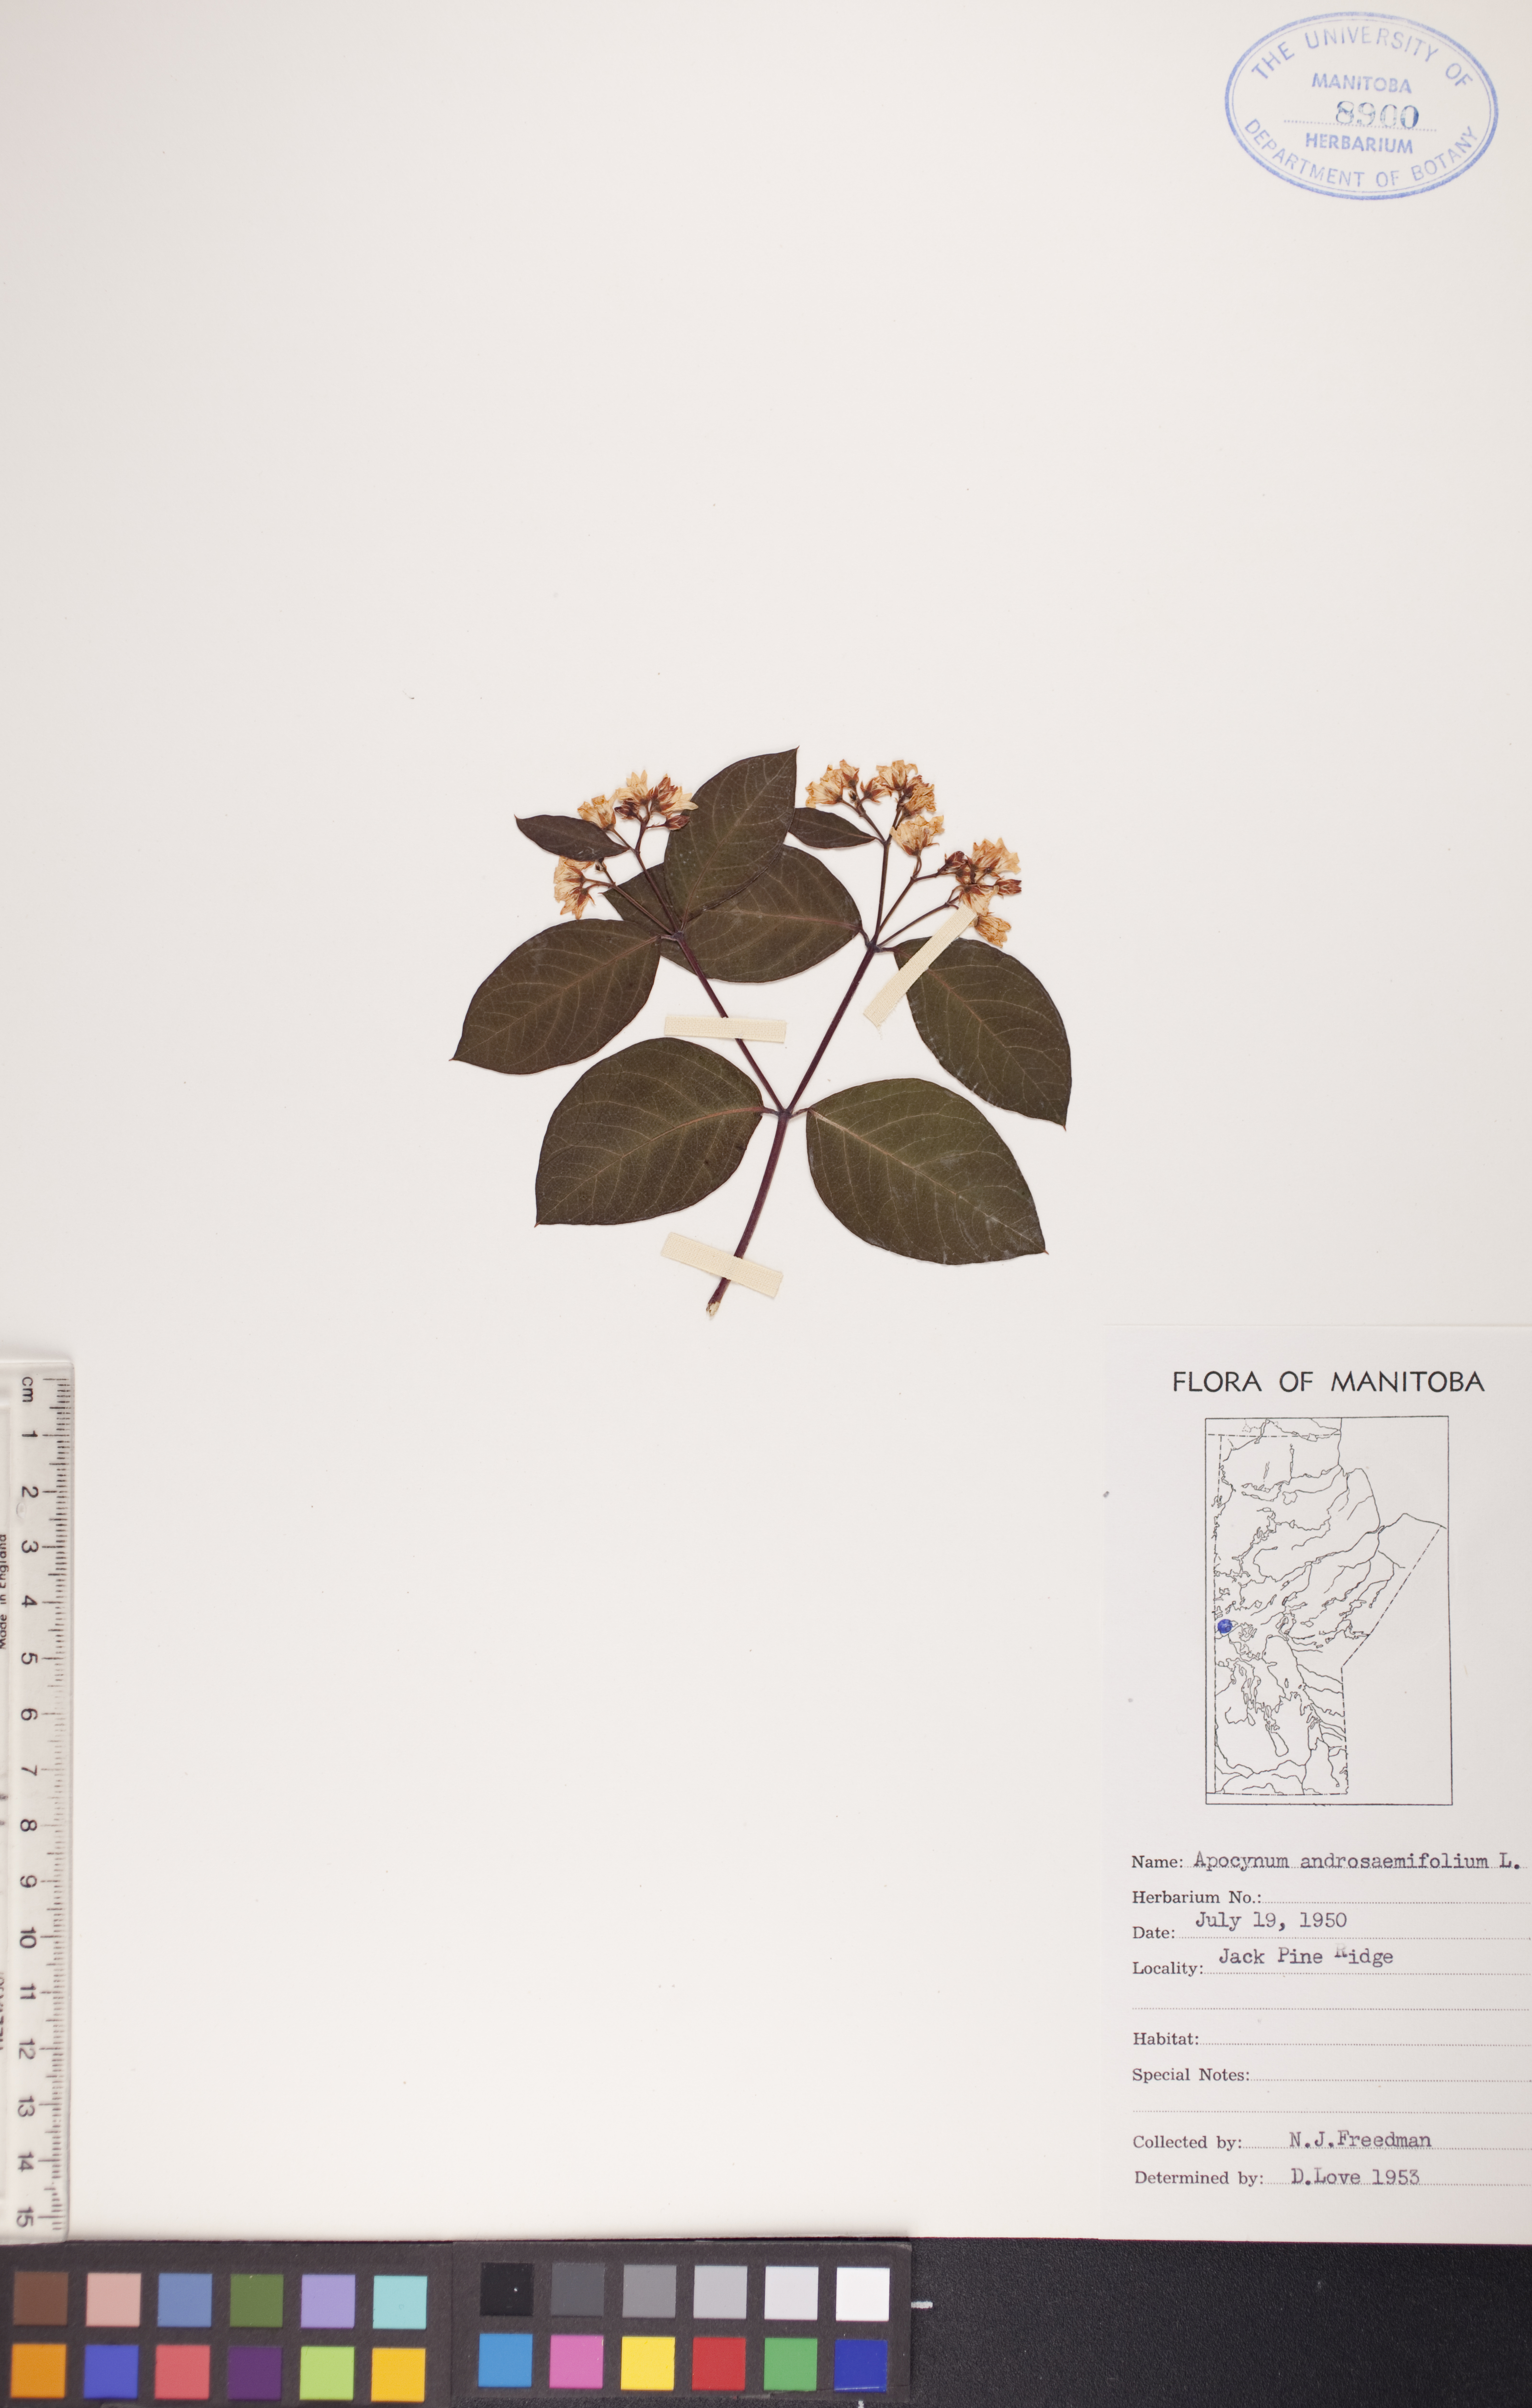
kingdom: Plantae
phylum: Tracheophyta
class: Magnoliopsida
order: Gentianales
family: Apocynaceae
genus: Apocynum
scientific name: Apocynum androsaemifolium
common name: Spreading dogbane
